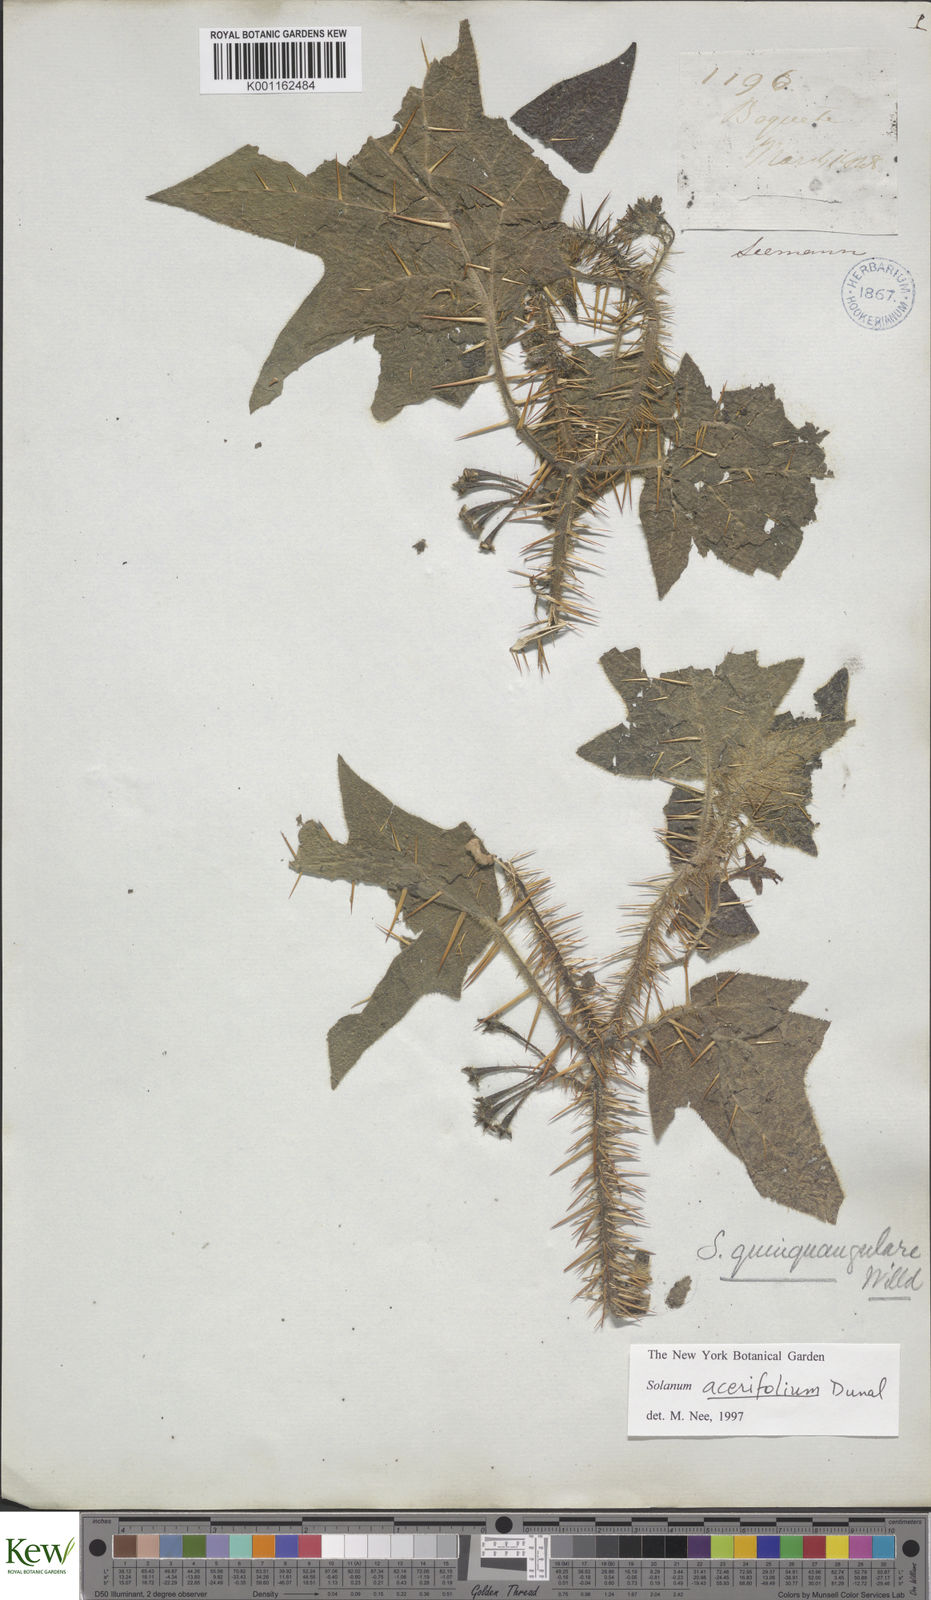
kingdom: Plantae
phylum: Tracheophyta
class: Magnoliopsida
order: Solanales
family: Solanaceae
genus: Solanum
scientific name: Solanum acerifolium
